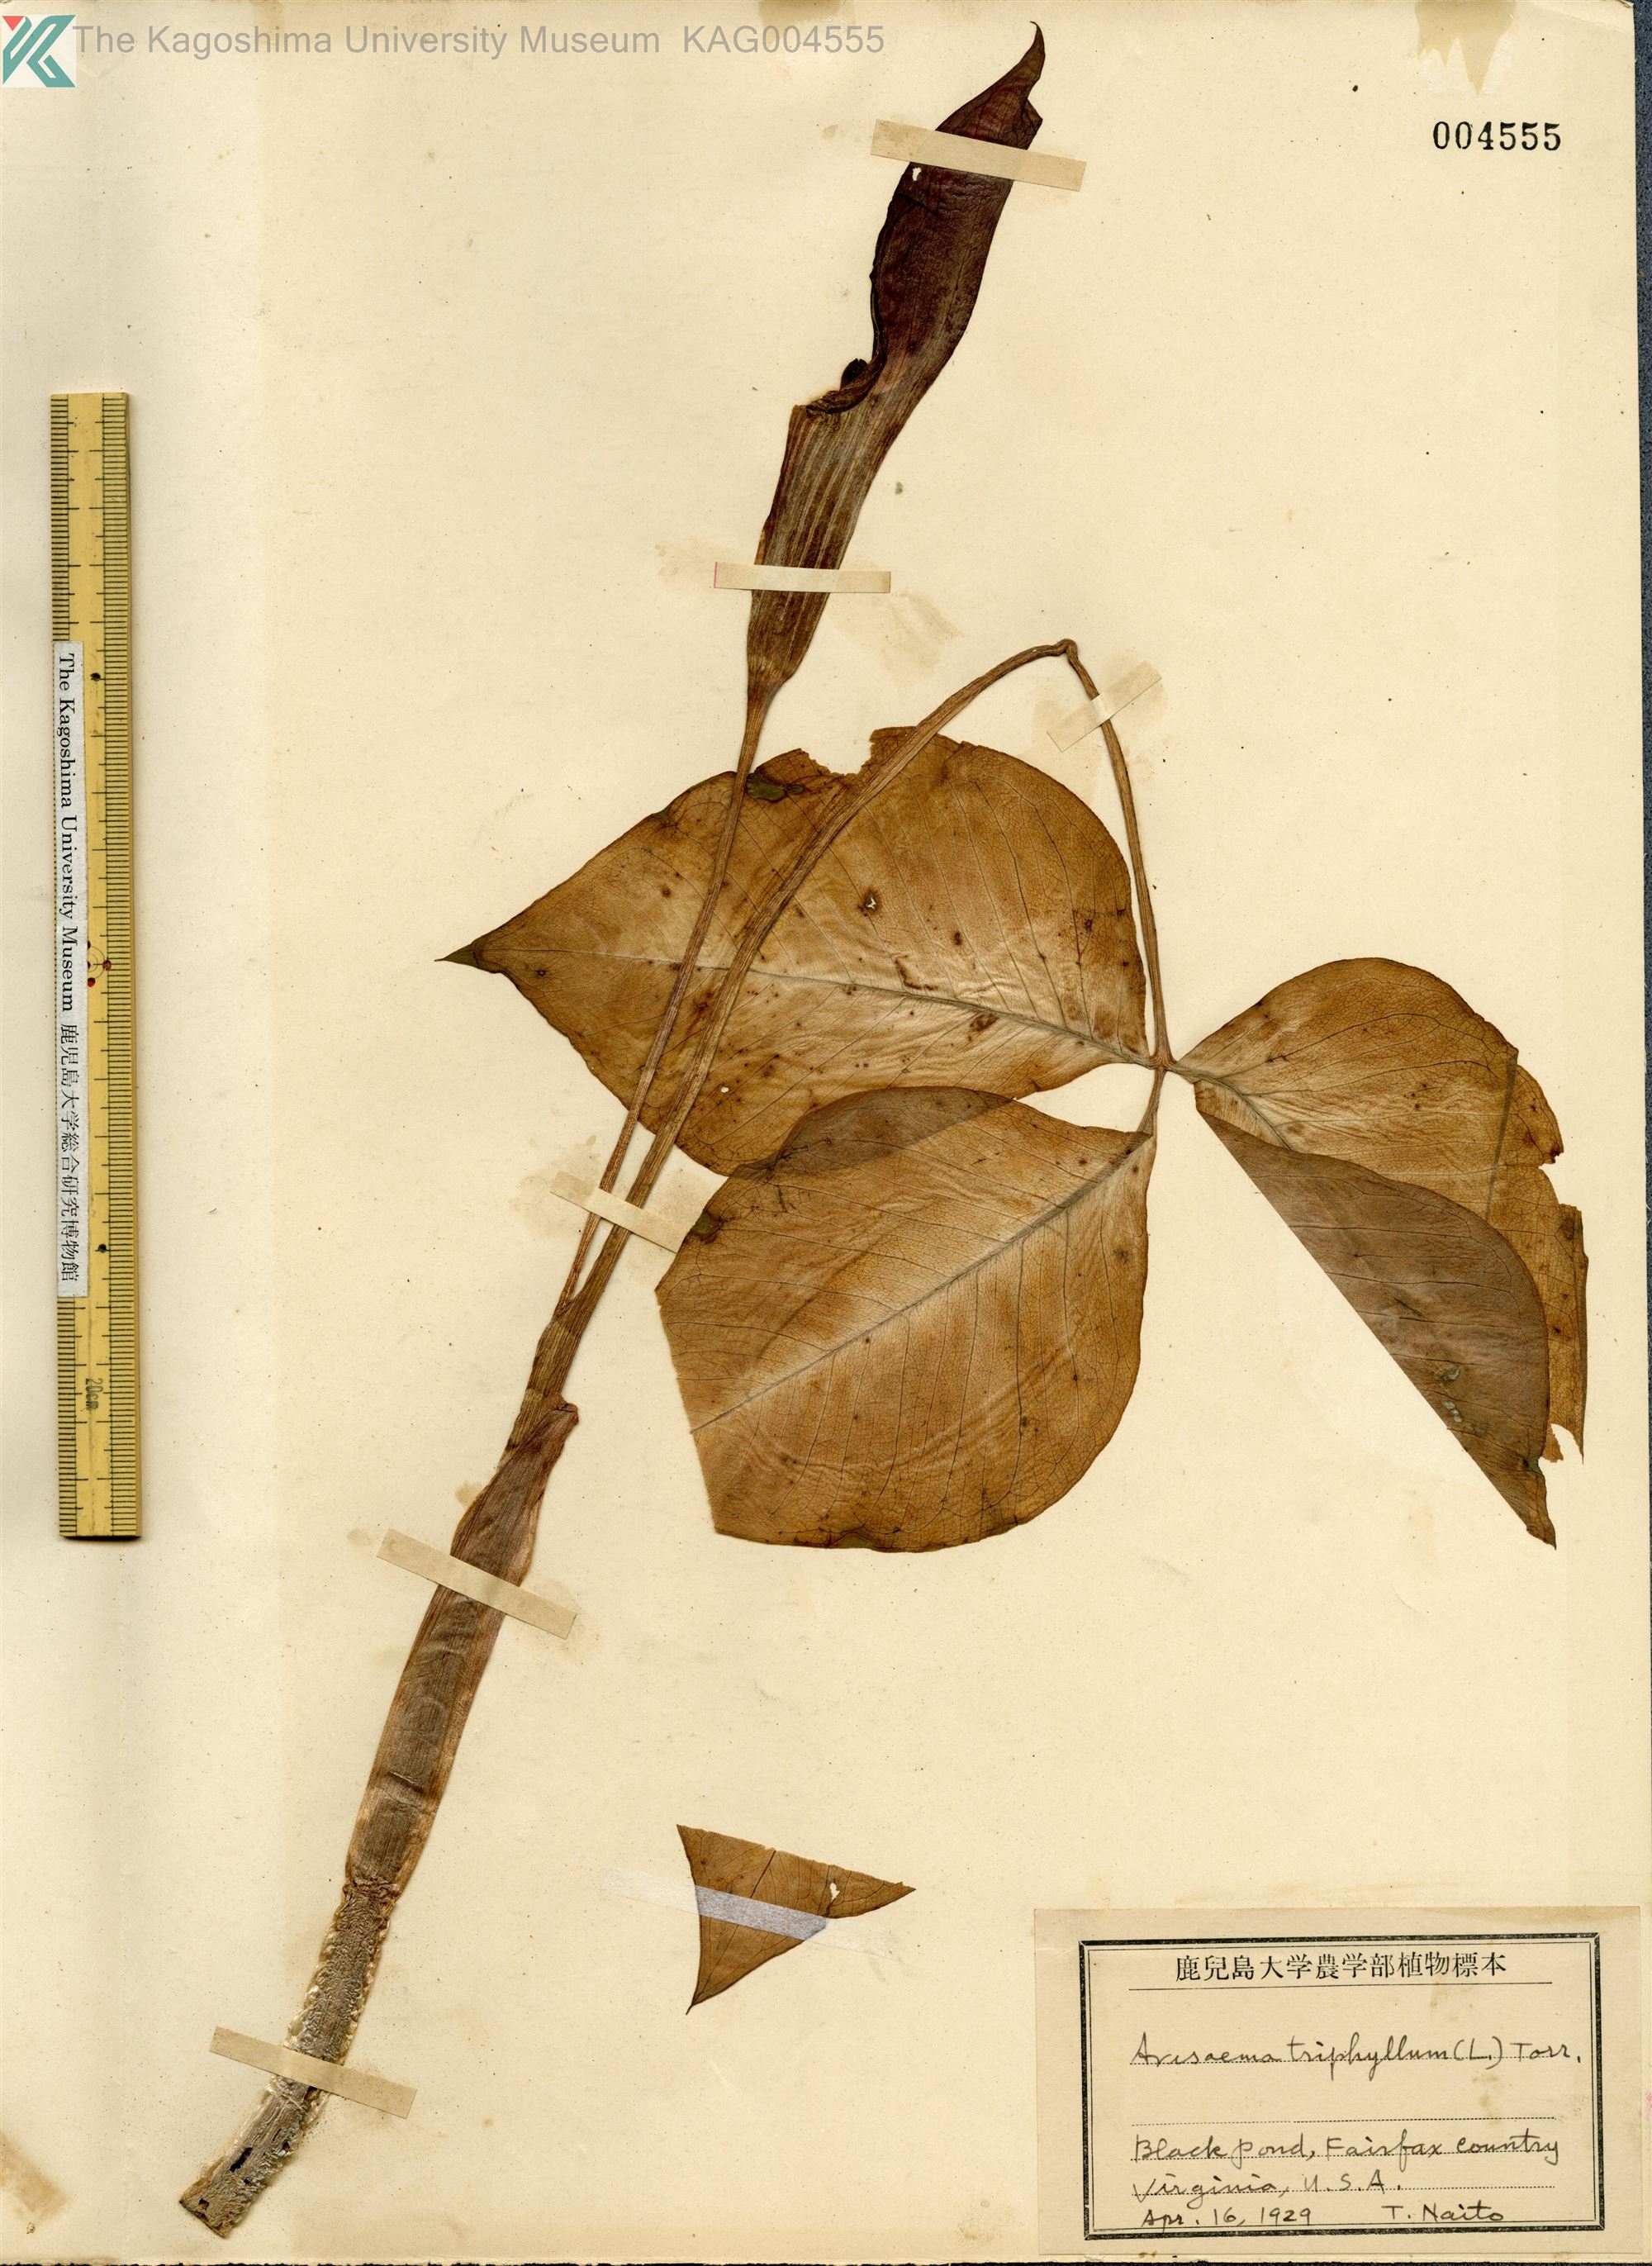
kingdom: Plantae
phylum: Tracheophyta
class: Liliopsida
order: Alismatales
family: Araceae
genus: Arisaema
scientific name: Arisaema triphyllum
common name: Jack-in-the-pulpit
